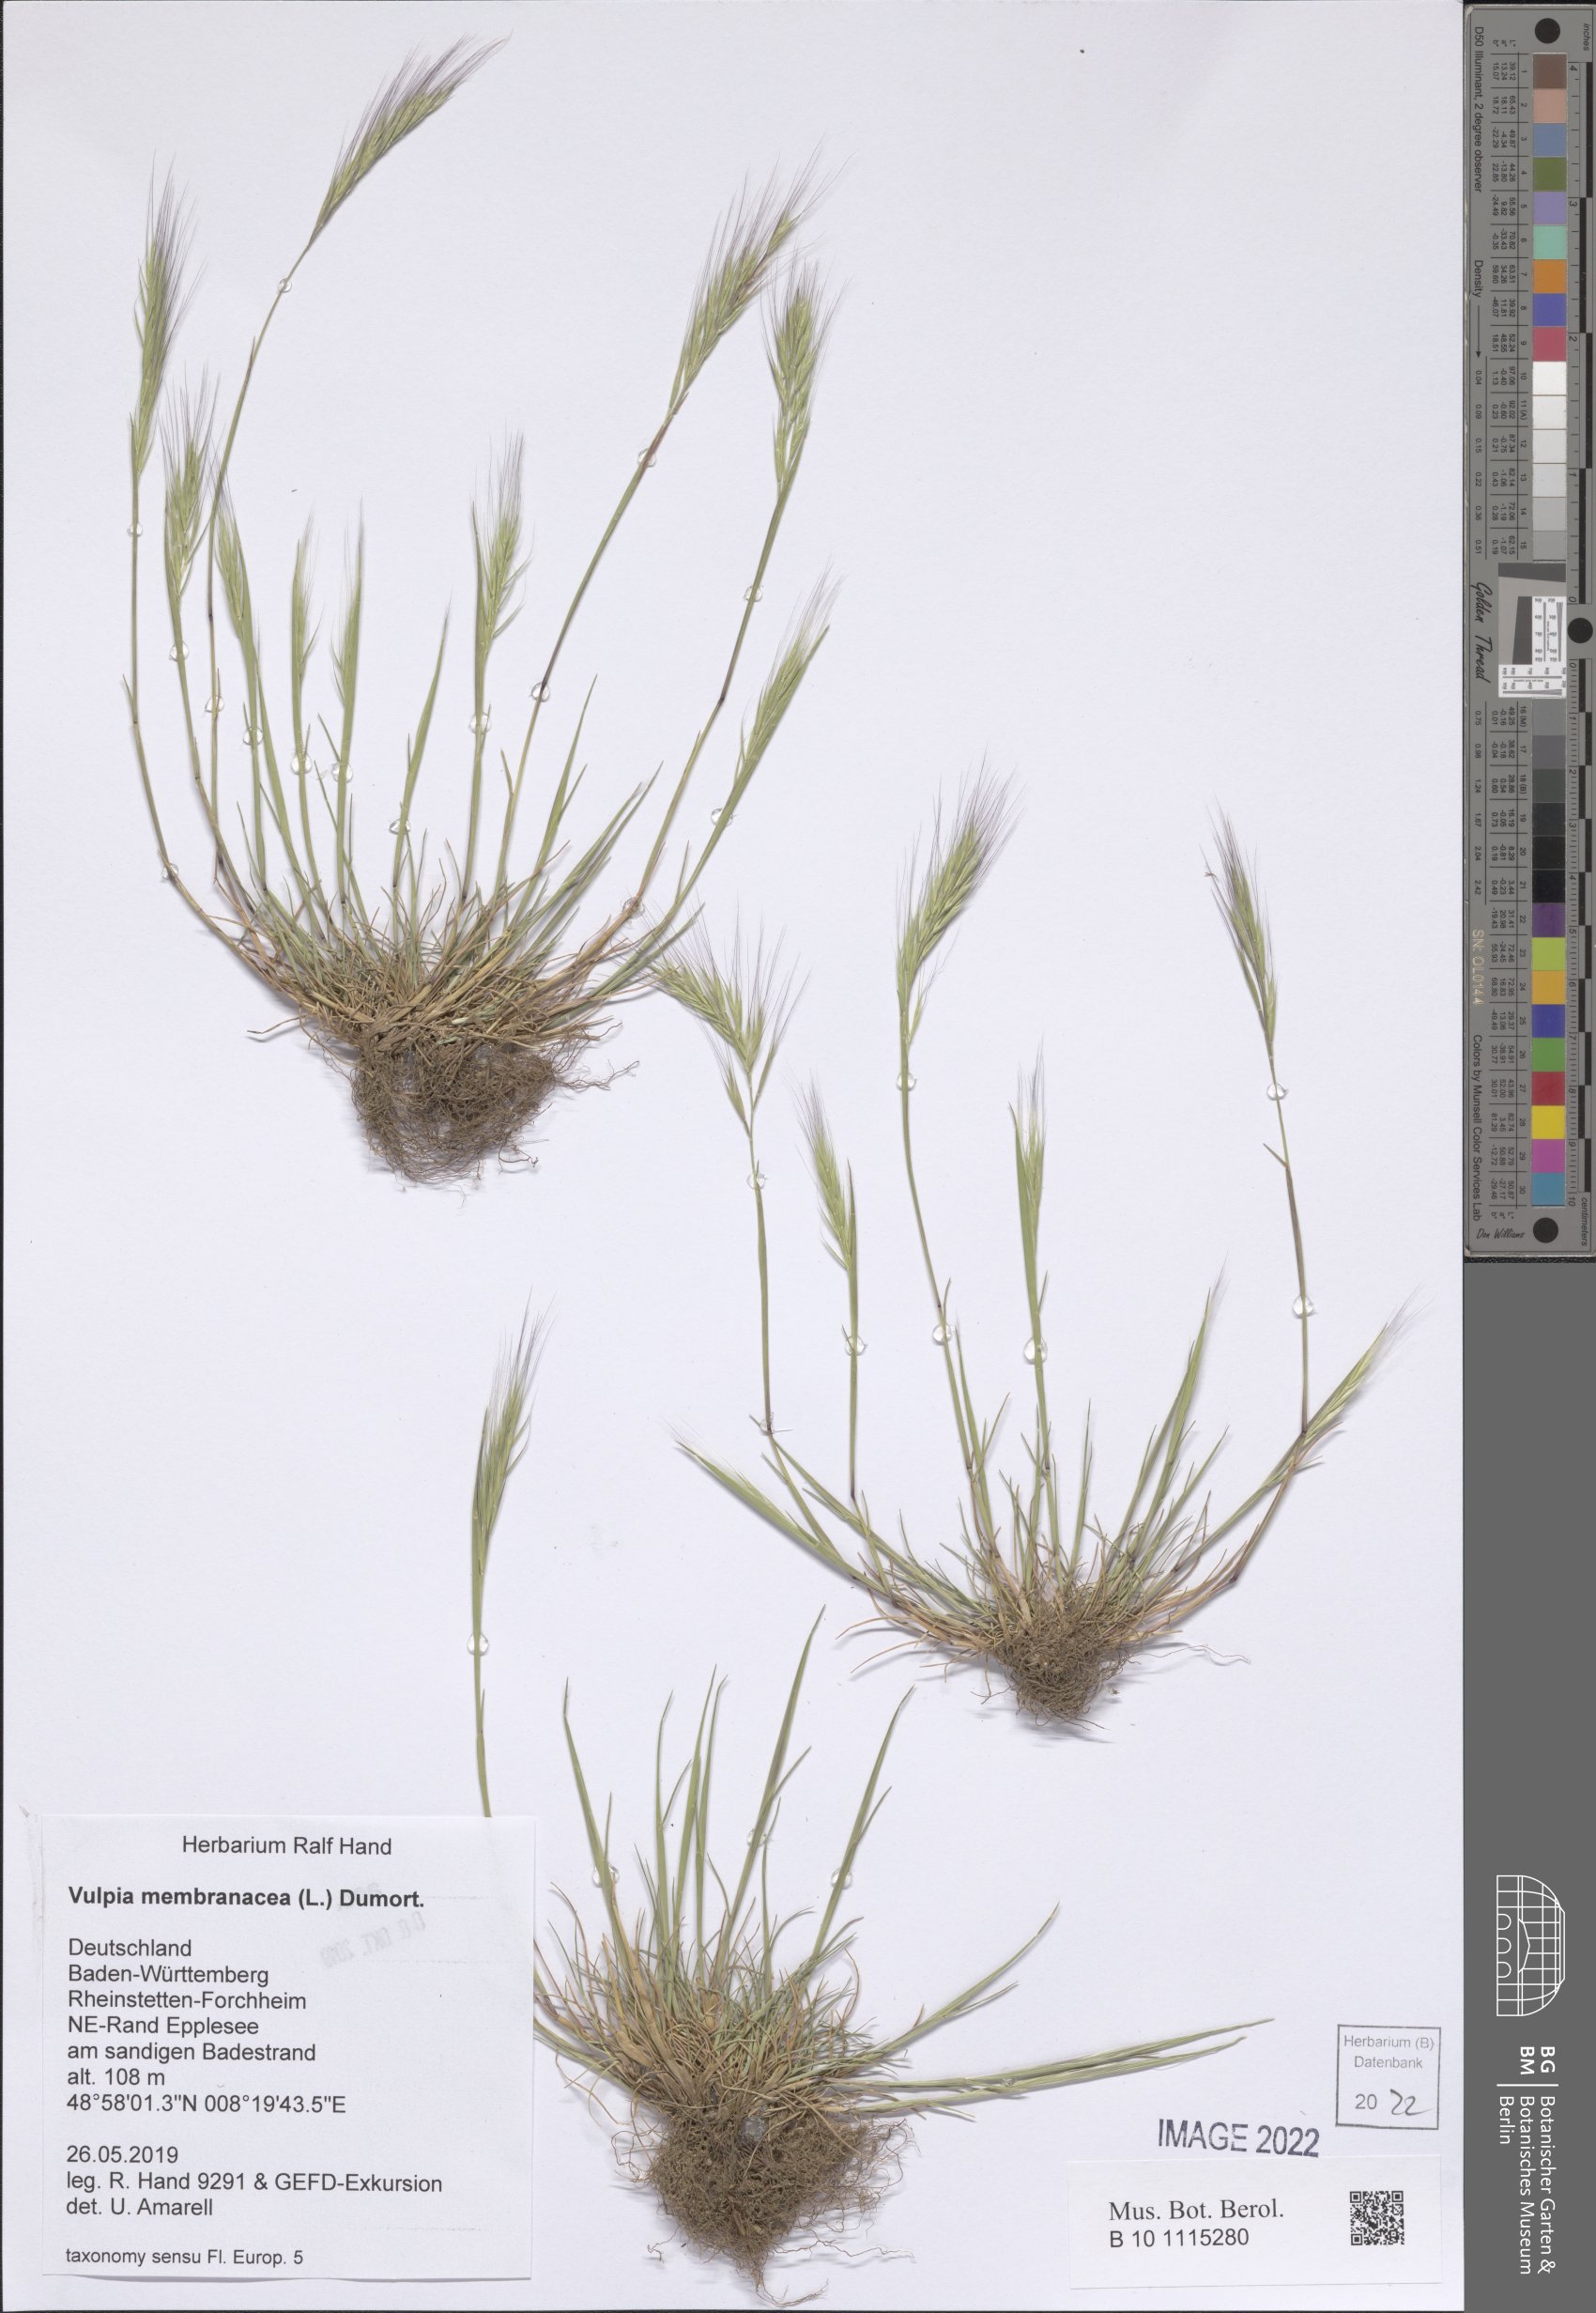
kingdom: Plantae
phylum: Tracheophyta
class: Liliopsida
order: Poales
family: Poaceae
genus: Festuca
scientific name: Festuca membranacea
